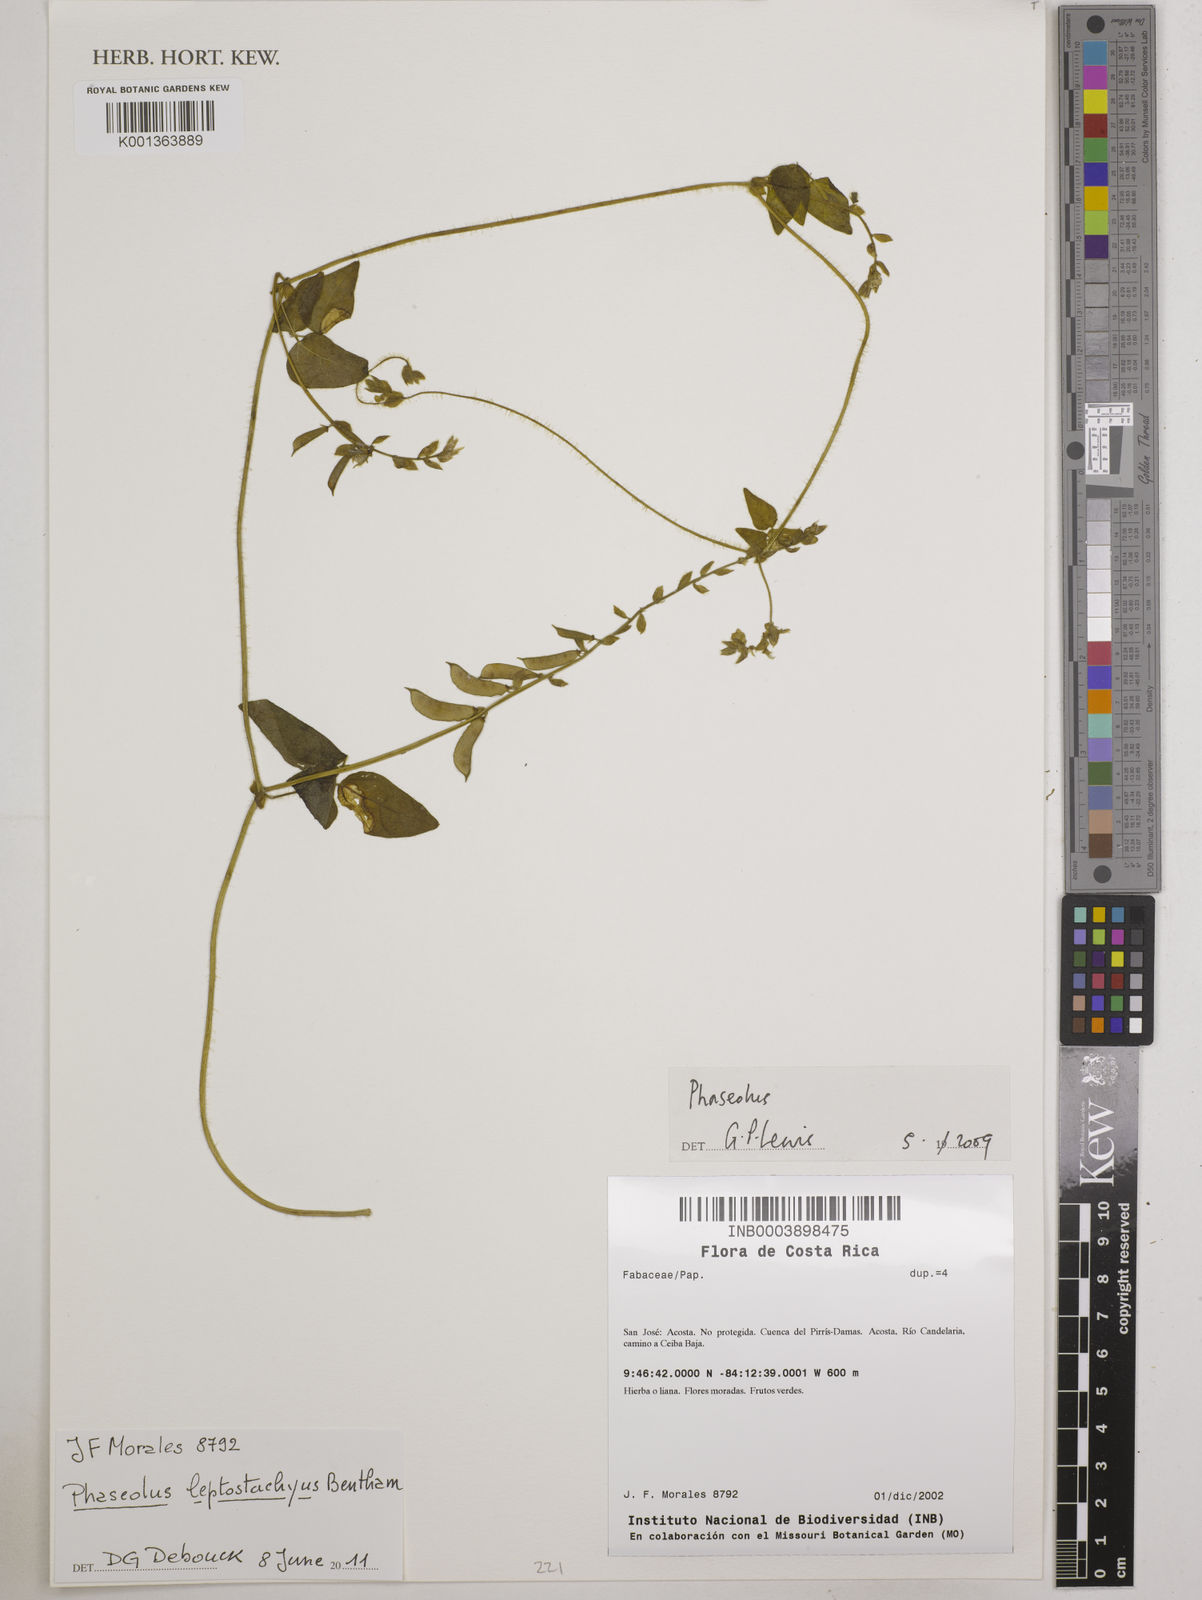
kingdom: Plantae
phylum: Tracheophyta
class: Magnoliopsida
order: Fabales
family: Fabaceae
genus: Phaseolus
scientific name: Phaseolus leptostachyus
